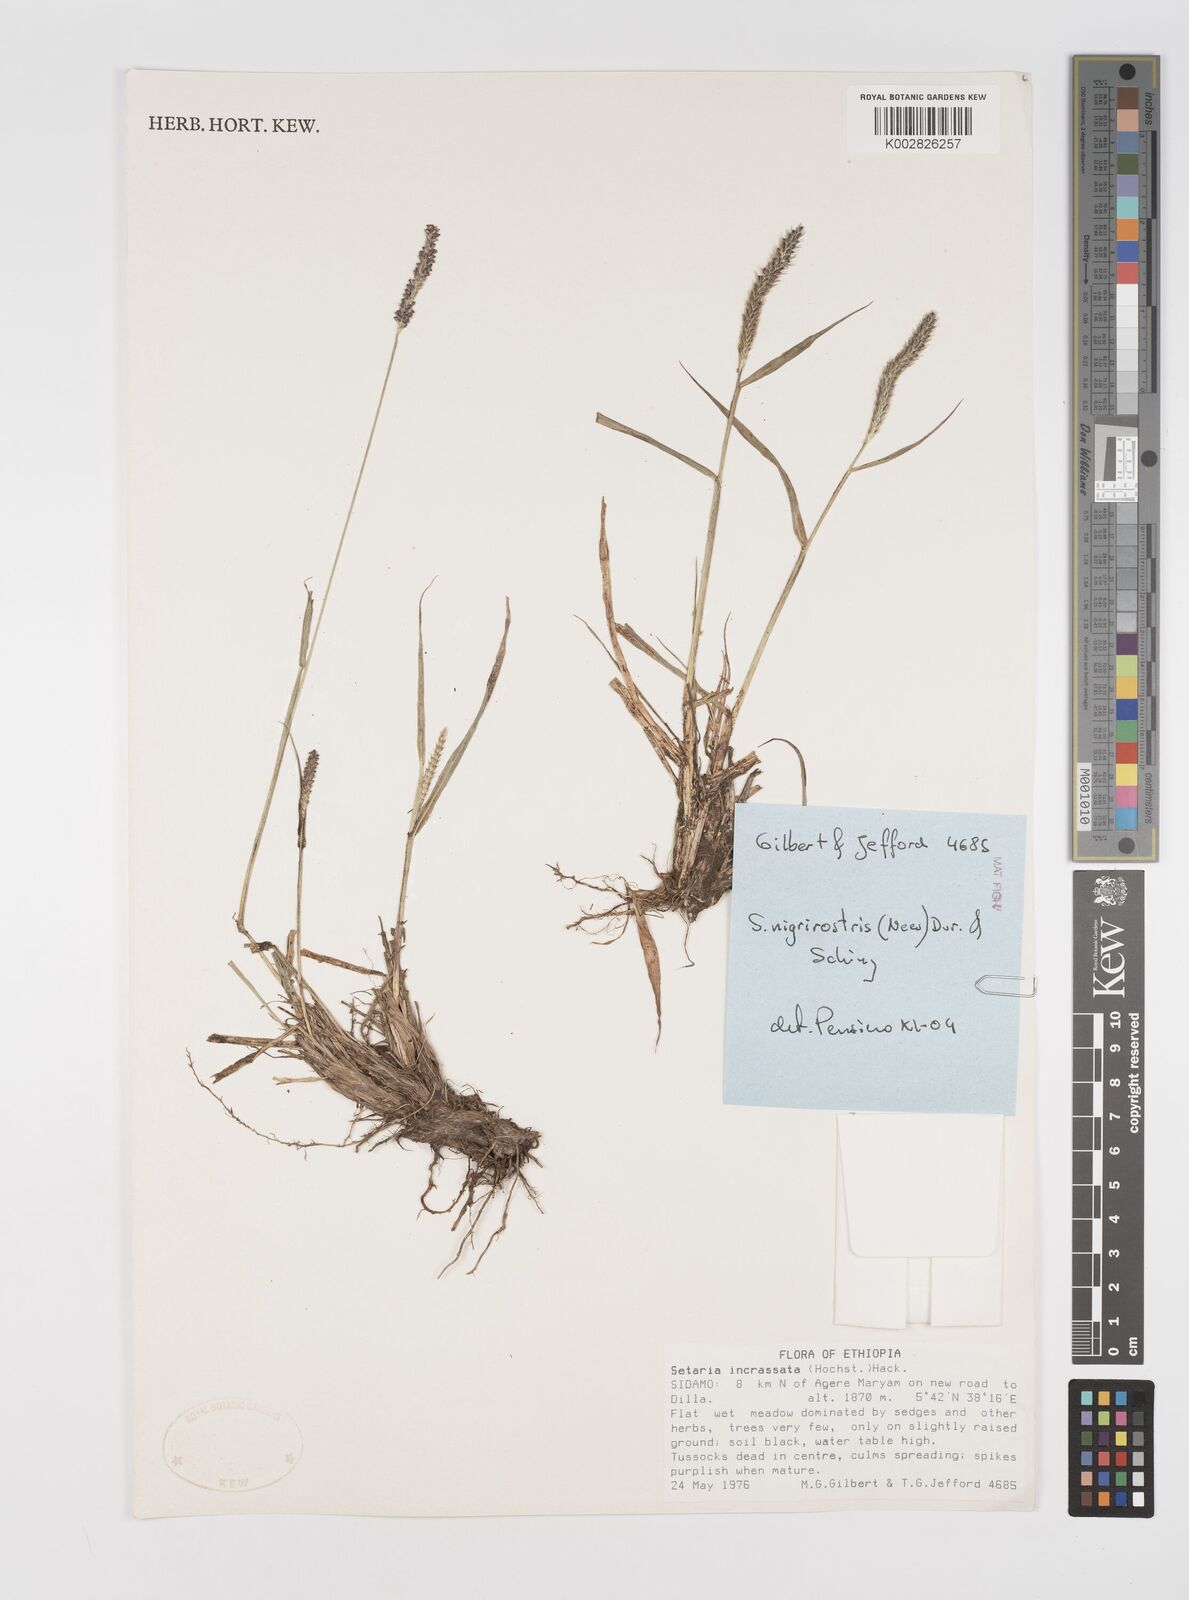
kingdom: Plantae
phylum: Tracheophyta
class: Liliopsida
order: Poales
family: Poaceae
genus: Setaria
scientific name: Setaria nigrirostris
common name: Black bristlegrass
